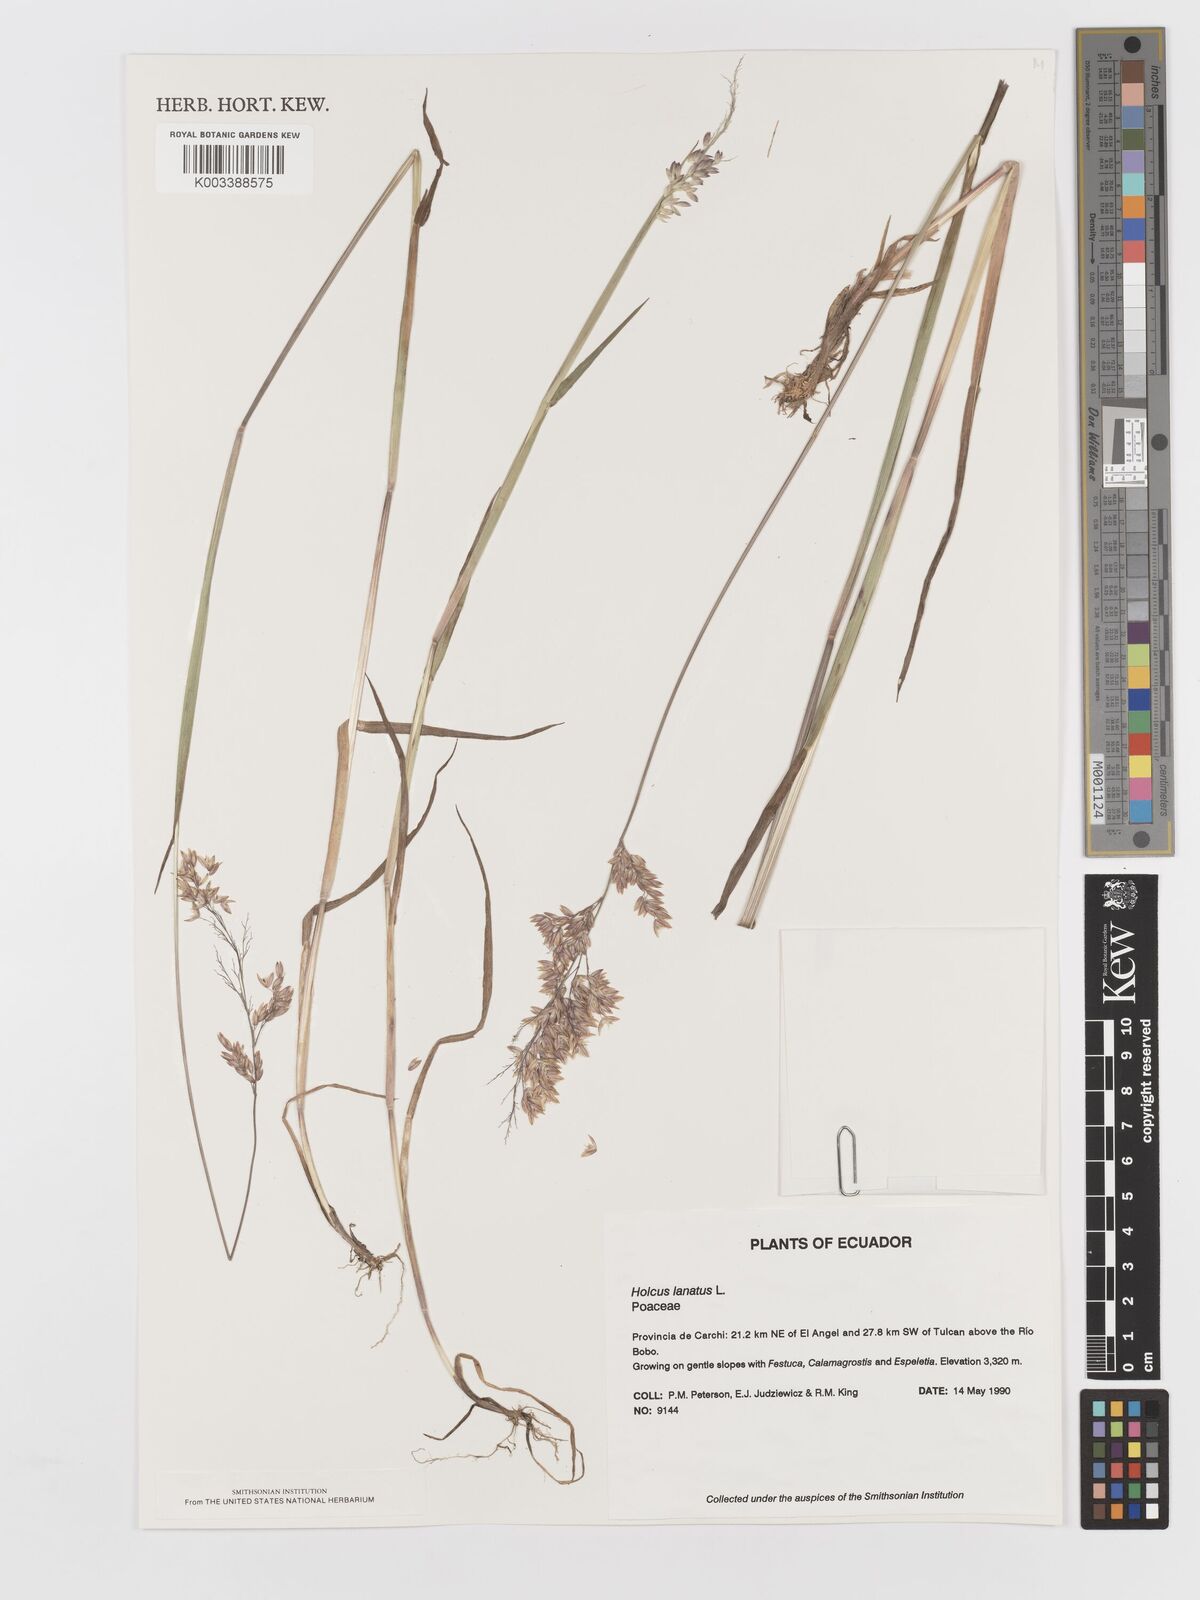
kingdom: Plantae
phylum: Tracheophyta
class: Liliopsida
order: Poales
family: Poaceae
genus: Holcus
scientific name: Holcus lanatus
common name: Yorkshire-fog
